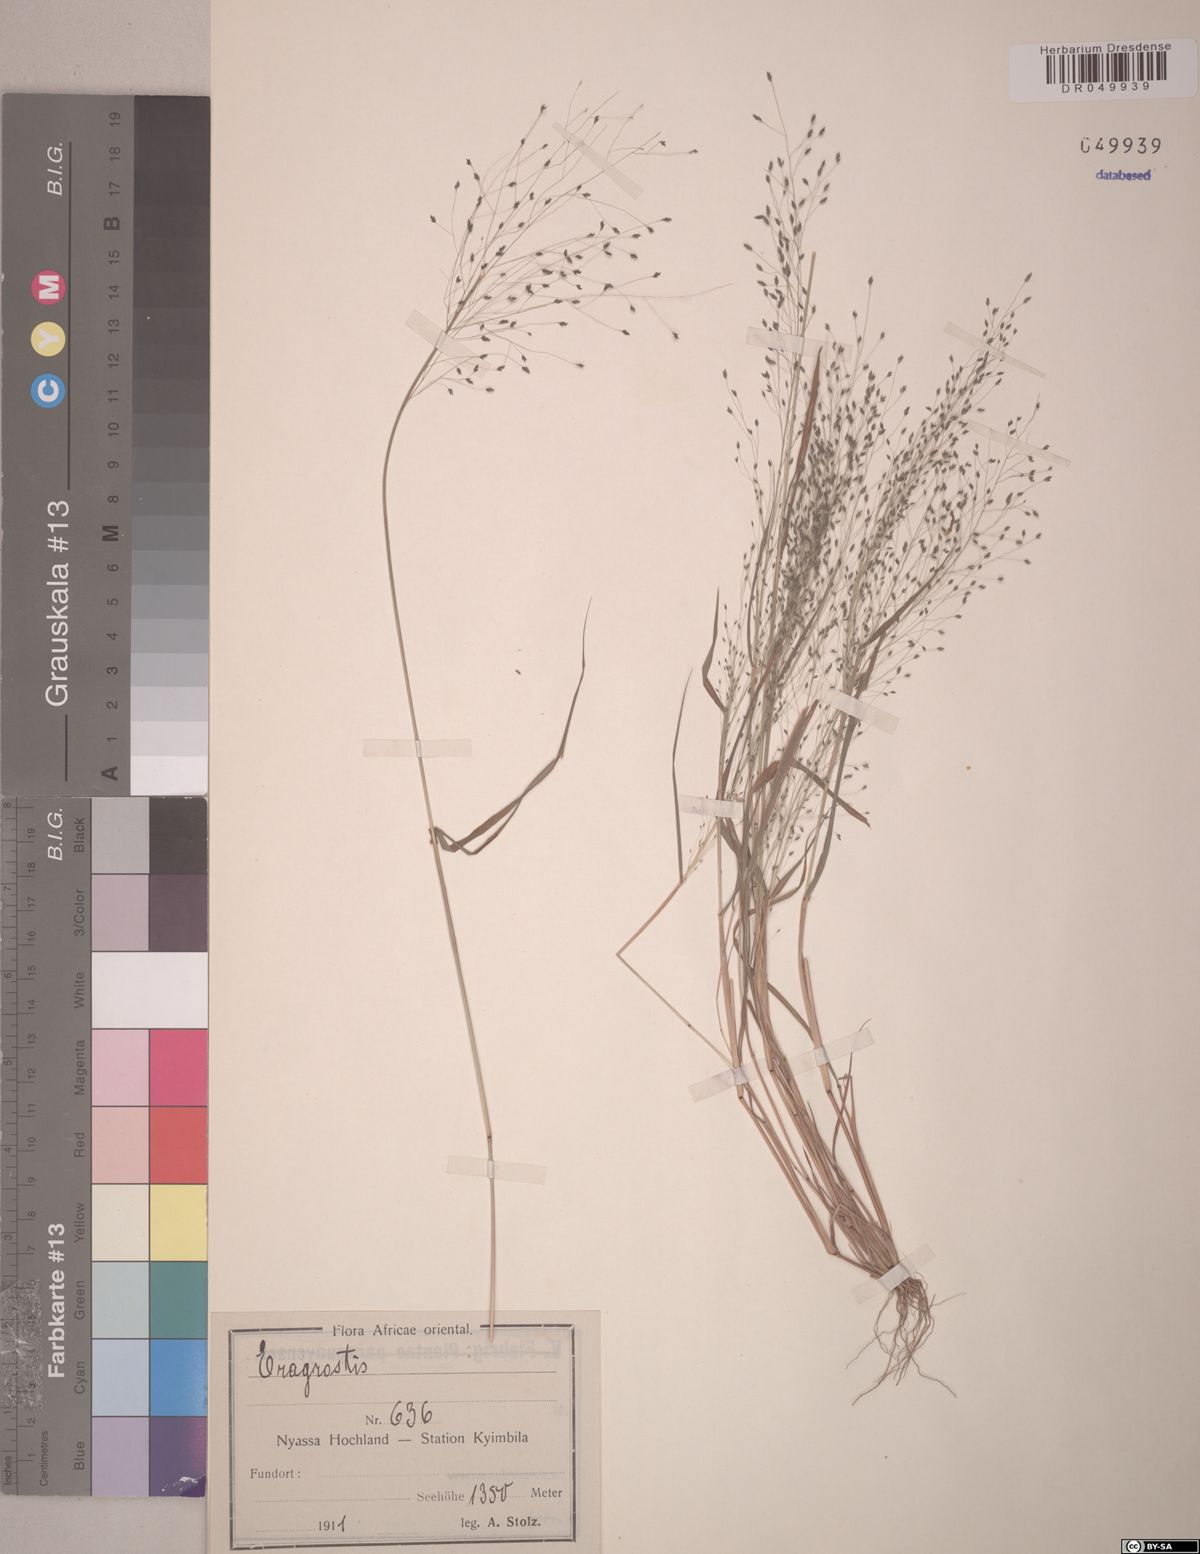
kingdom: Plantae
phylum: Tracheophyta
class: Liliopsida
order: Poales
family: Poaceae
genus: Eragrostis
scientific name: Eragrostis
